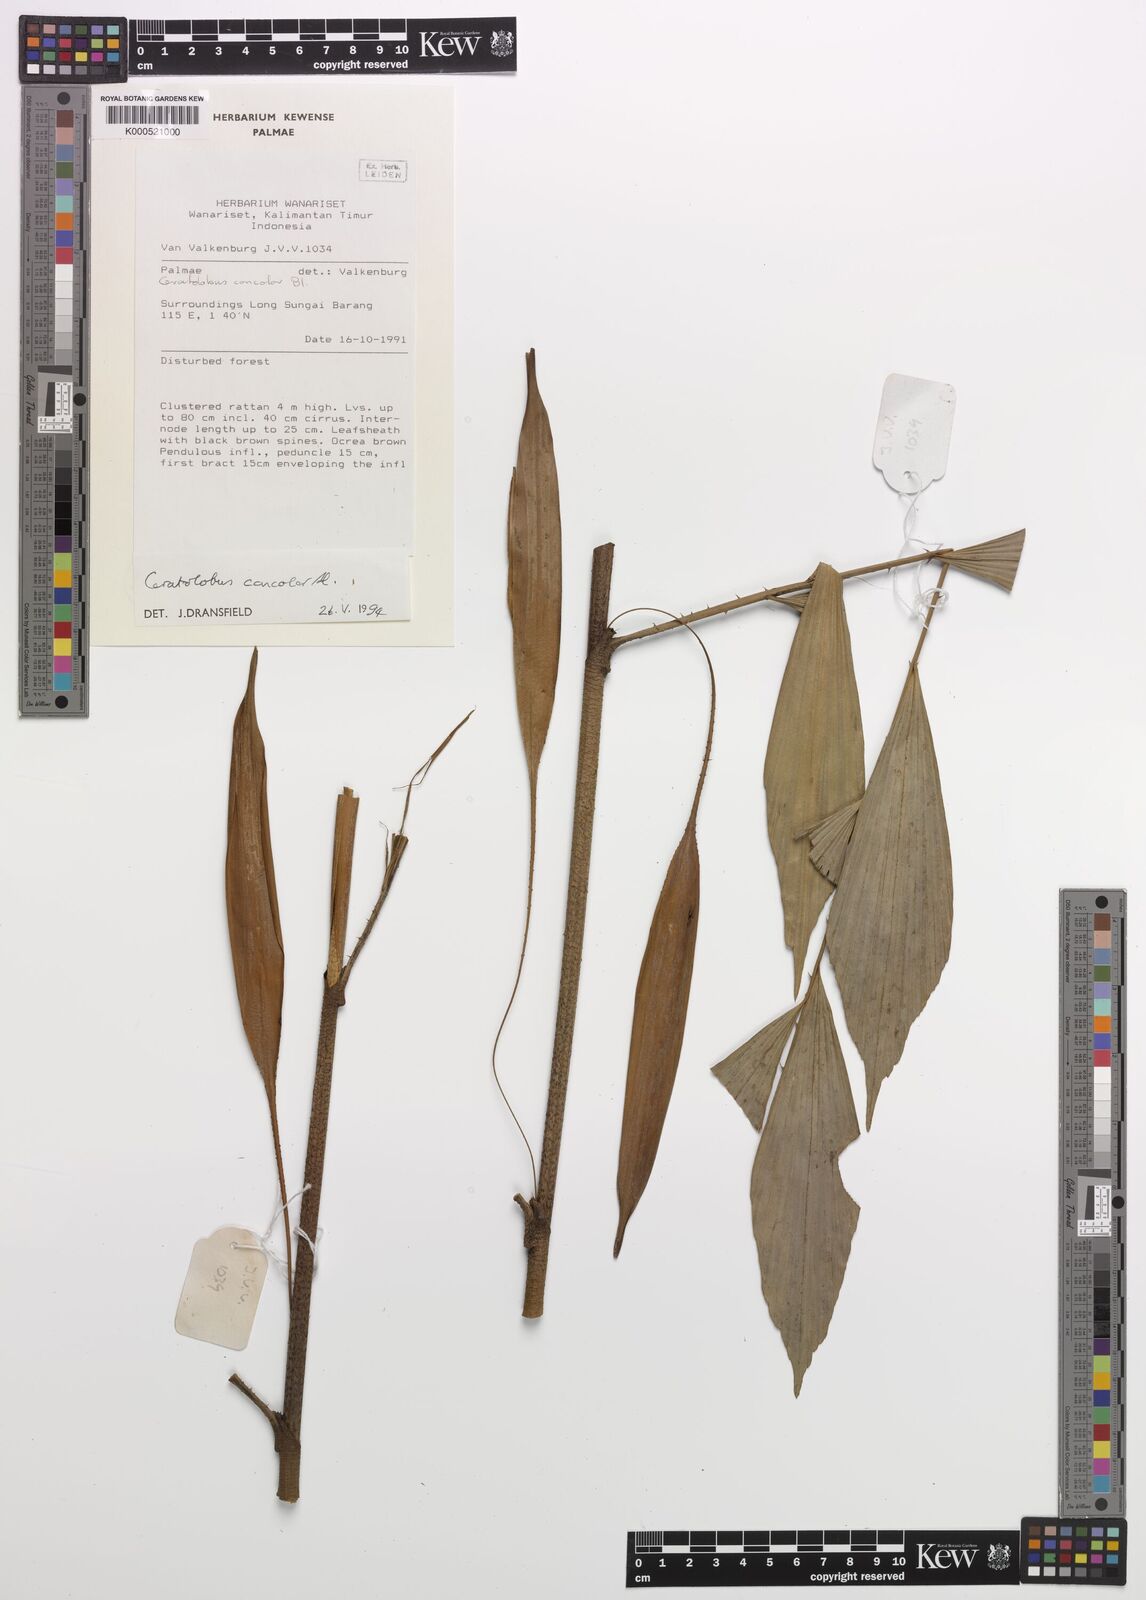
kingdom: Plantae
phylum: Tracheophyta
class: Liliopsida
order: Arecales
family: Arecaceae
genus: Calamus
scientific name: Calamus concolor
